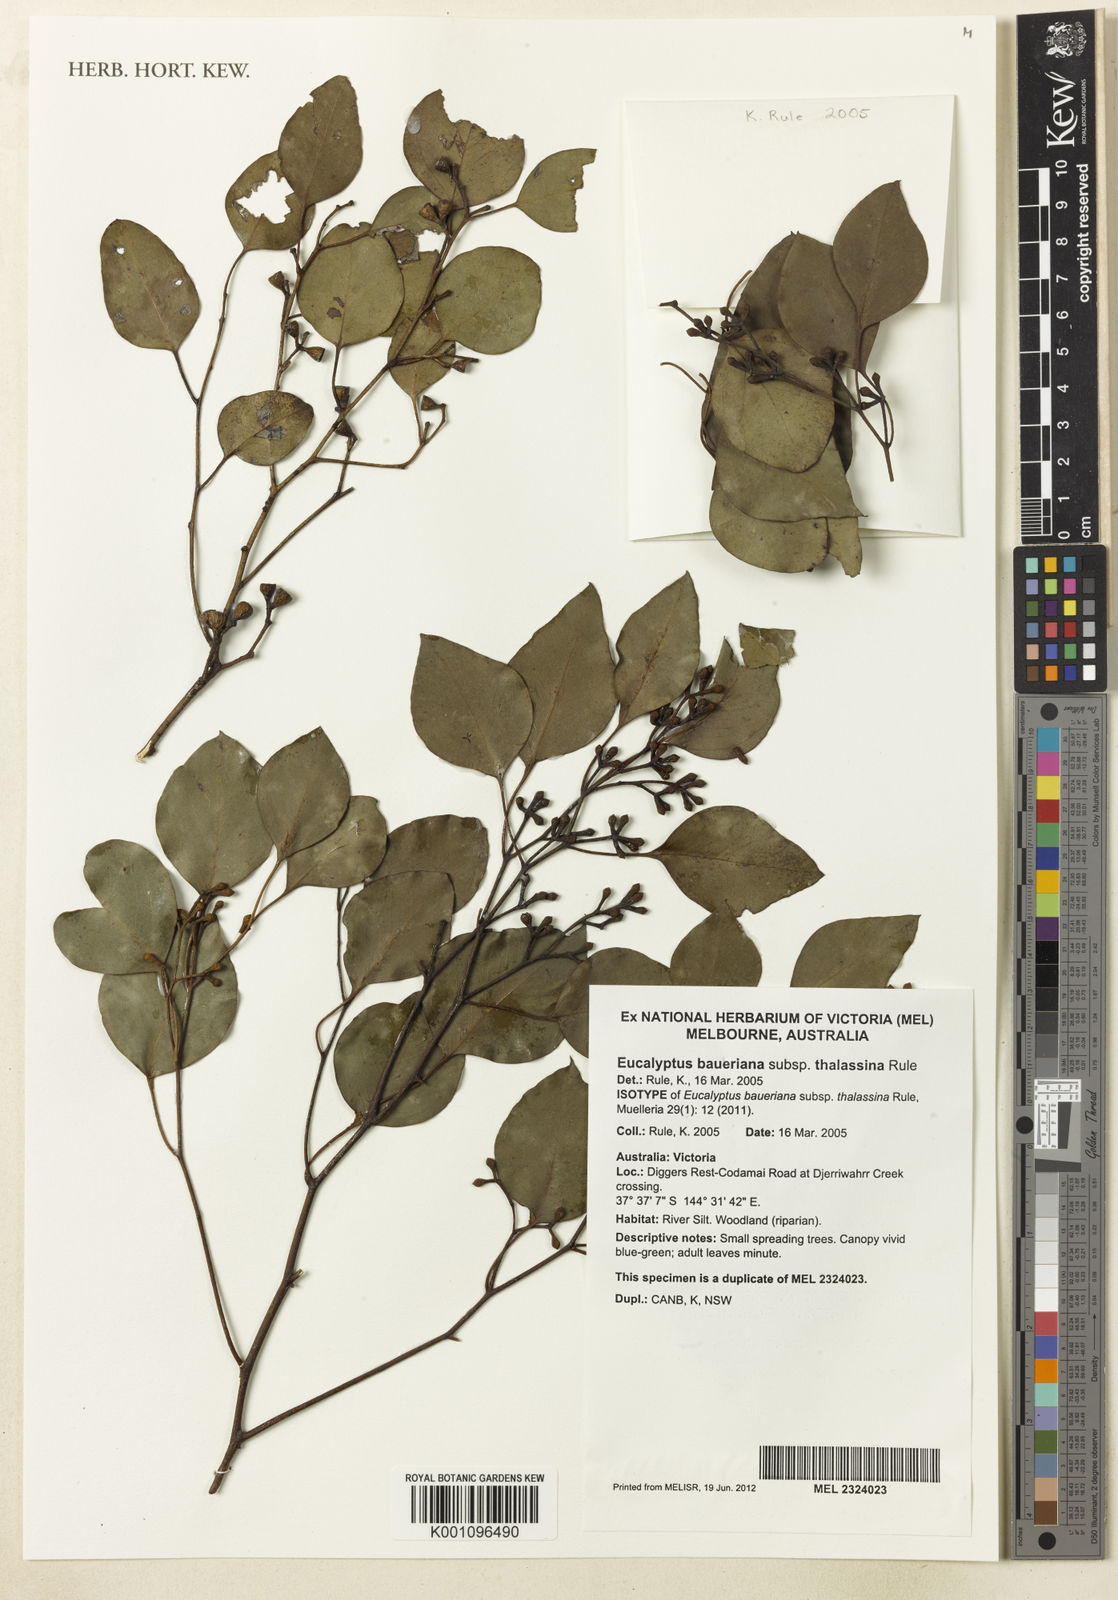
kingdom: Plantae
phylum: Tracheophyta
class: Magnoliopsida
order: Myrtales
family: Myrtaceae
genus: Eucalyptus
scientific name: Eucalyptus baueriana
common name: Round-leaf-box
